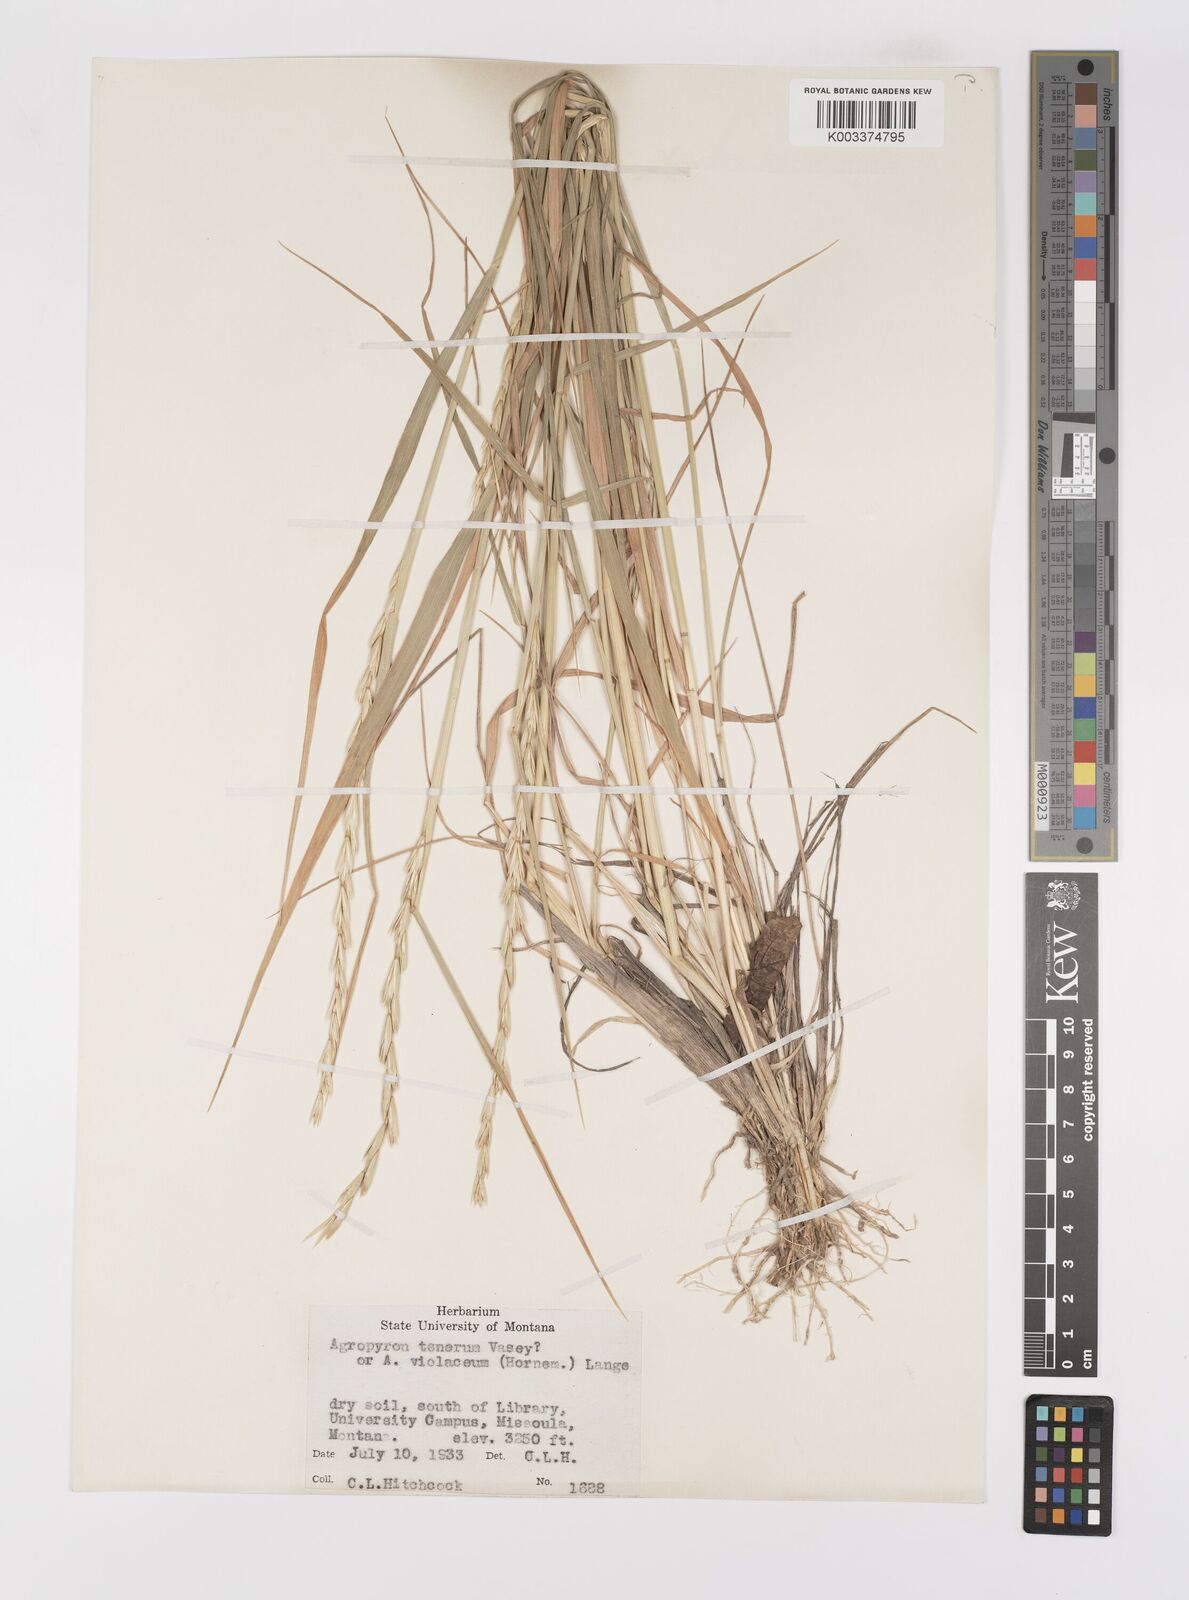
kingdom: Plantae
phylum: Tracheophyta
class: Liliopsida
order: Poales
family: Poaceae
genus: Elymus
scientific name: Elymus violaceus
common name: Arctic wheatgrass
